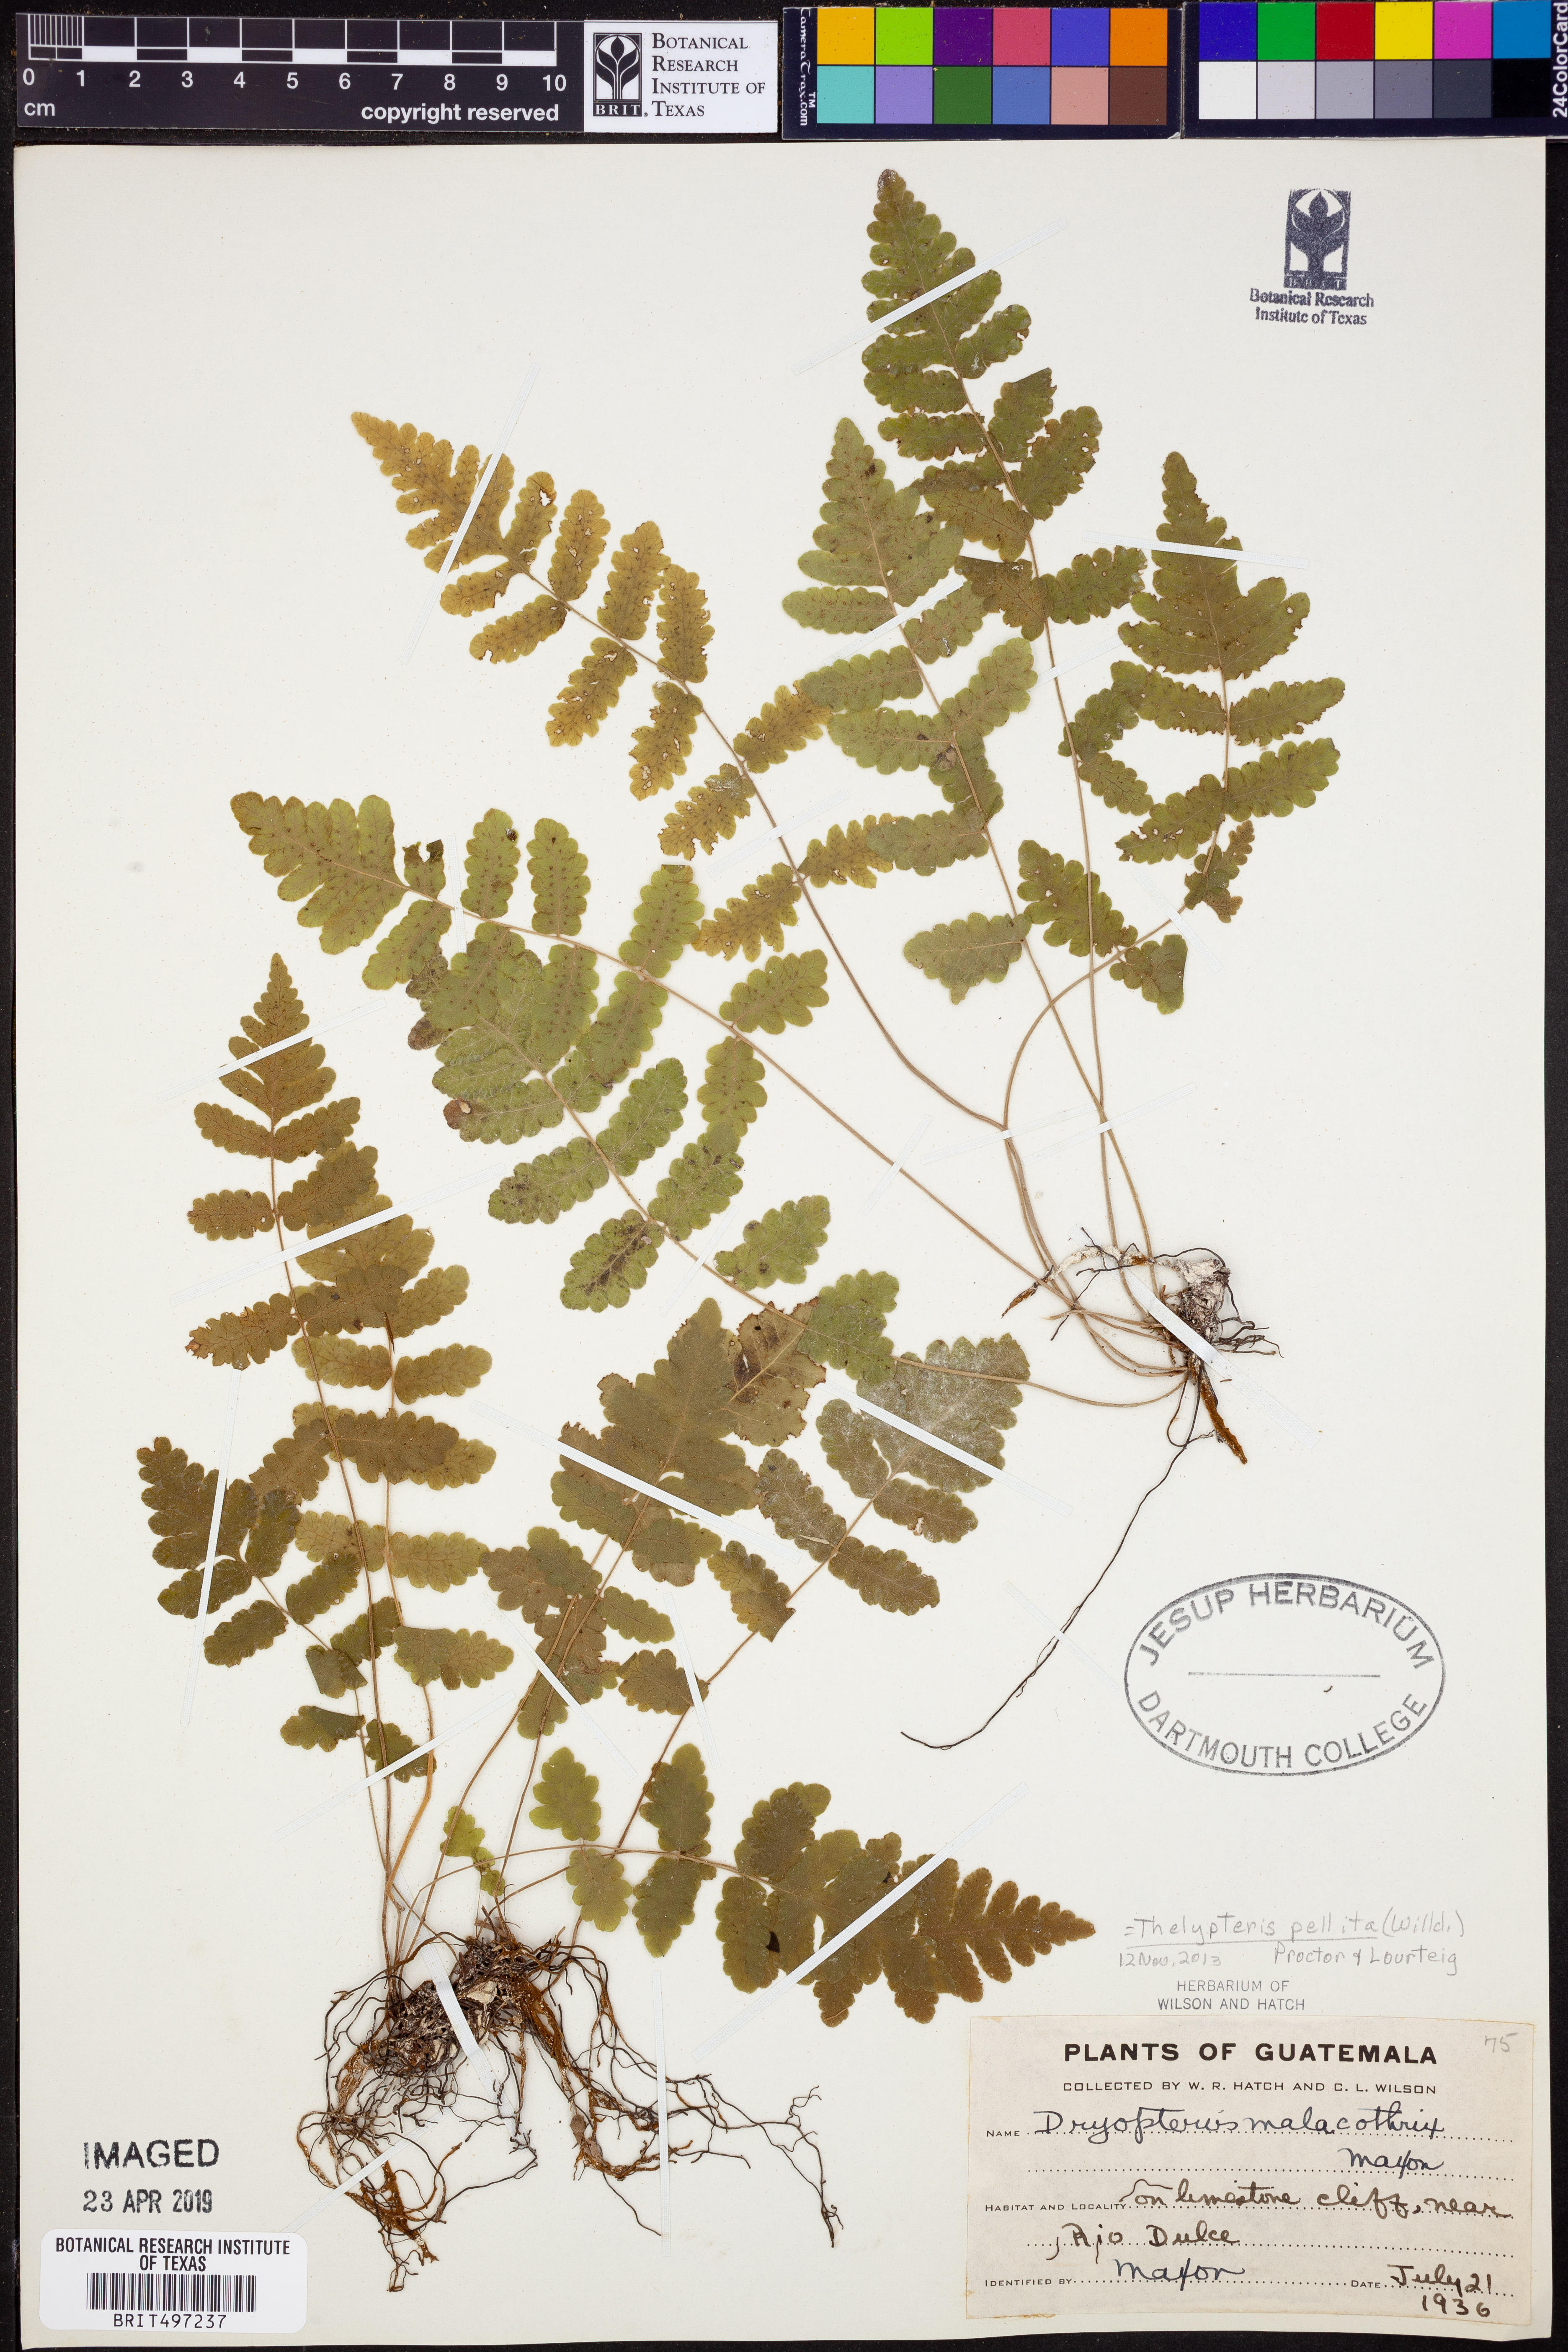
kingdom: Plantae
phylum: Tracheophyta
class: Polypodiopsida
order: Polypodiales
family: Thelypteridaceae
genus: Goniopteris
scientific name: Goniopteris pellita
